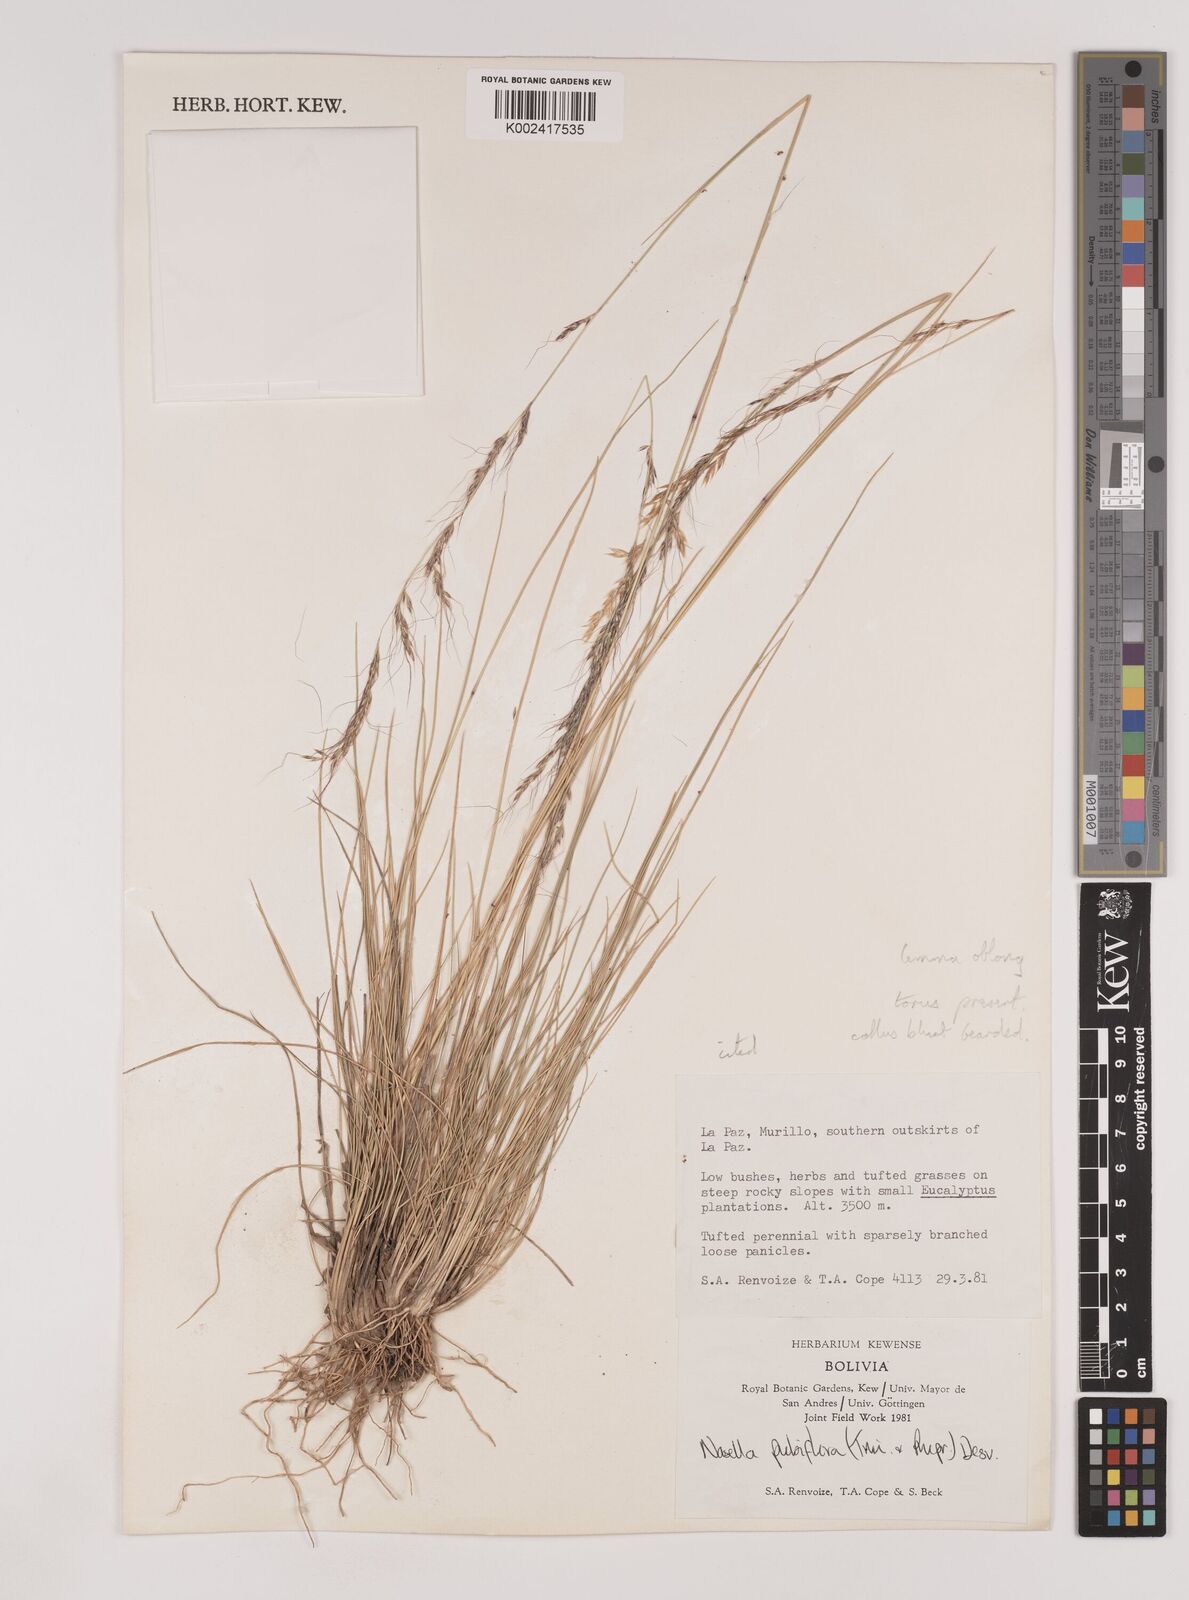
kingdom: Plantae
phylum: Tracheophyta
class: Liliopsida
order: Poales
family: Poaceae
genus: Nassella
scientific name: Nassella pubiflora
